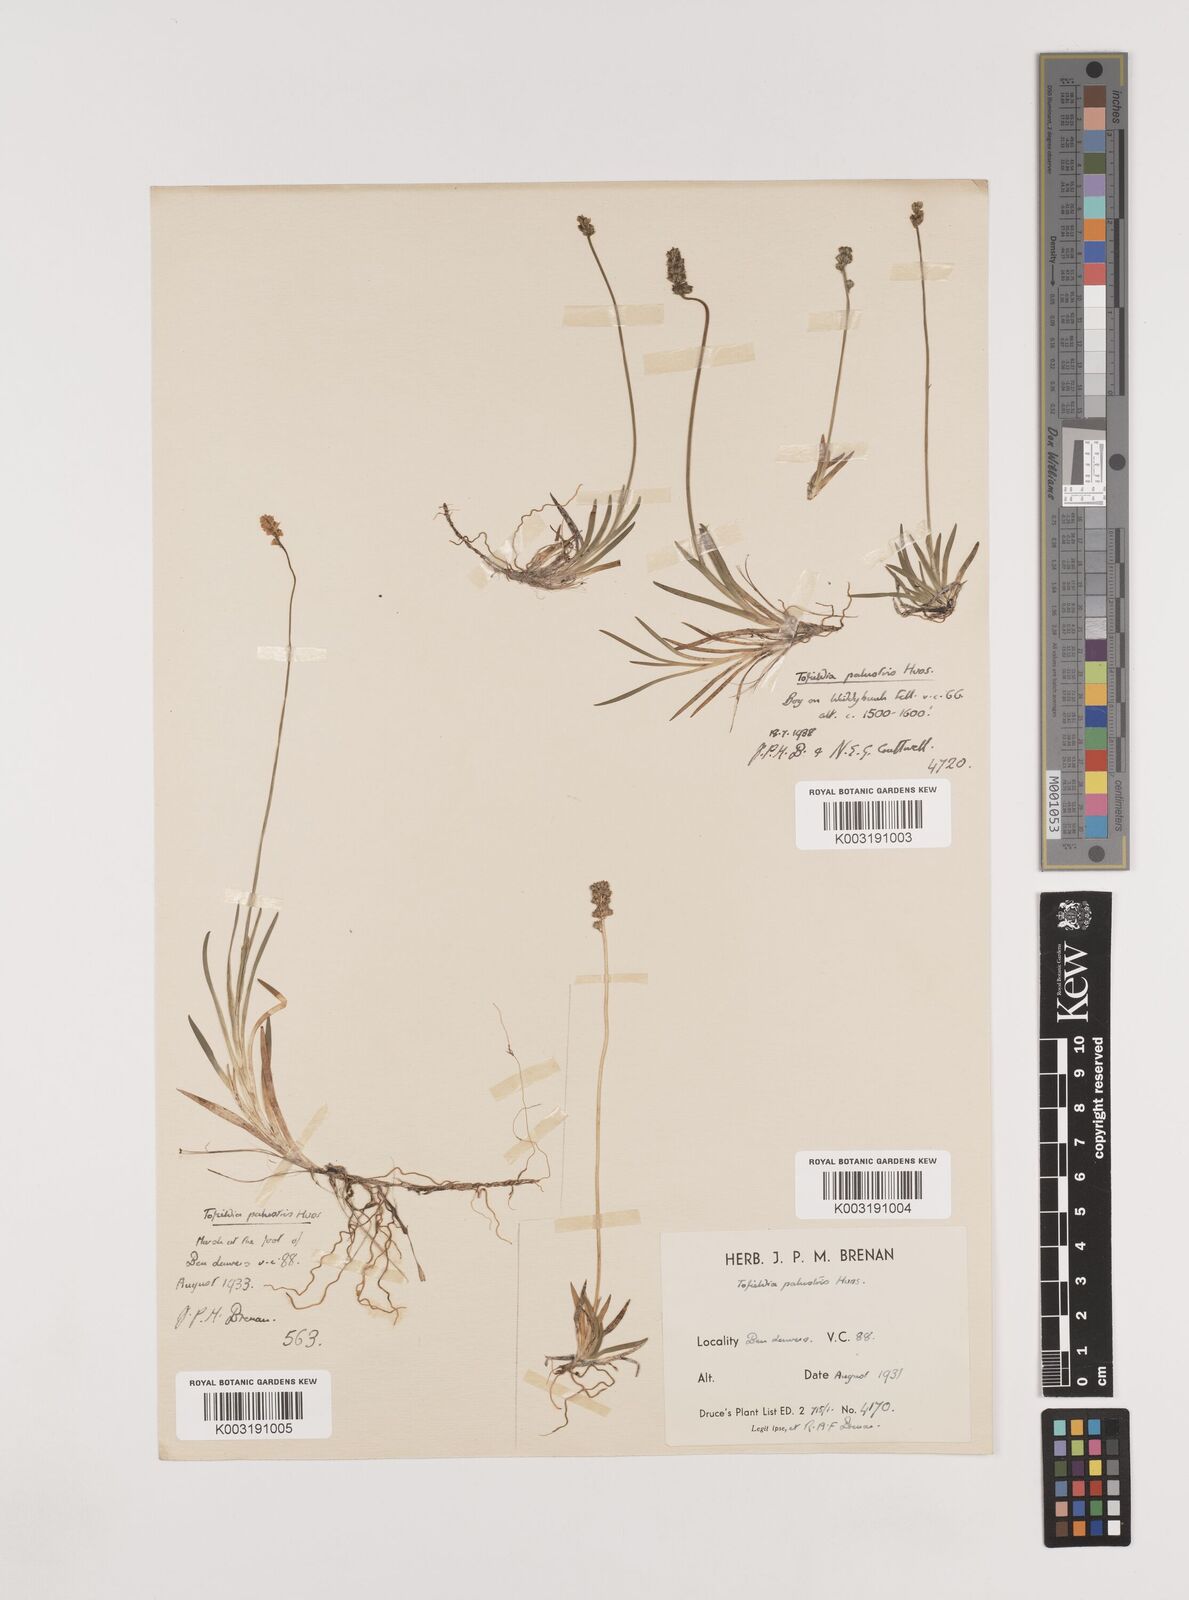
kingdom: Plantae
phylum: Tracheophyta
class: Liliopsida
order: Alismatales
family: Tofieldiaceae
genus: Tofieldia
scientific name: Tofieldia pusilla
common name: Scottish false asphodel
